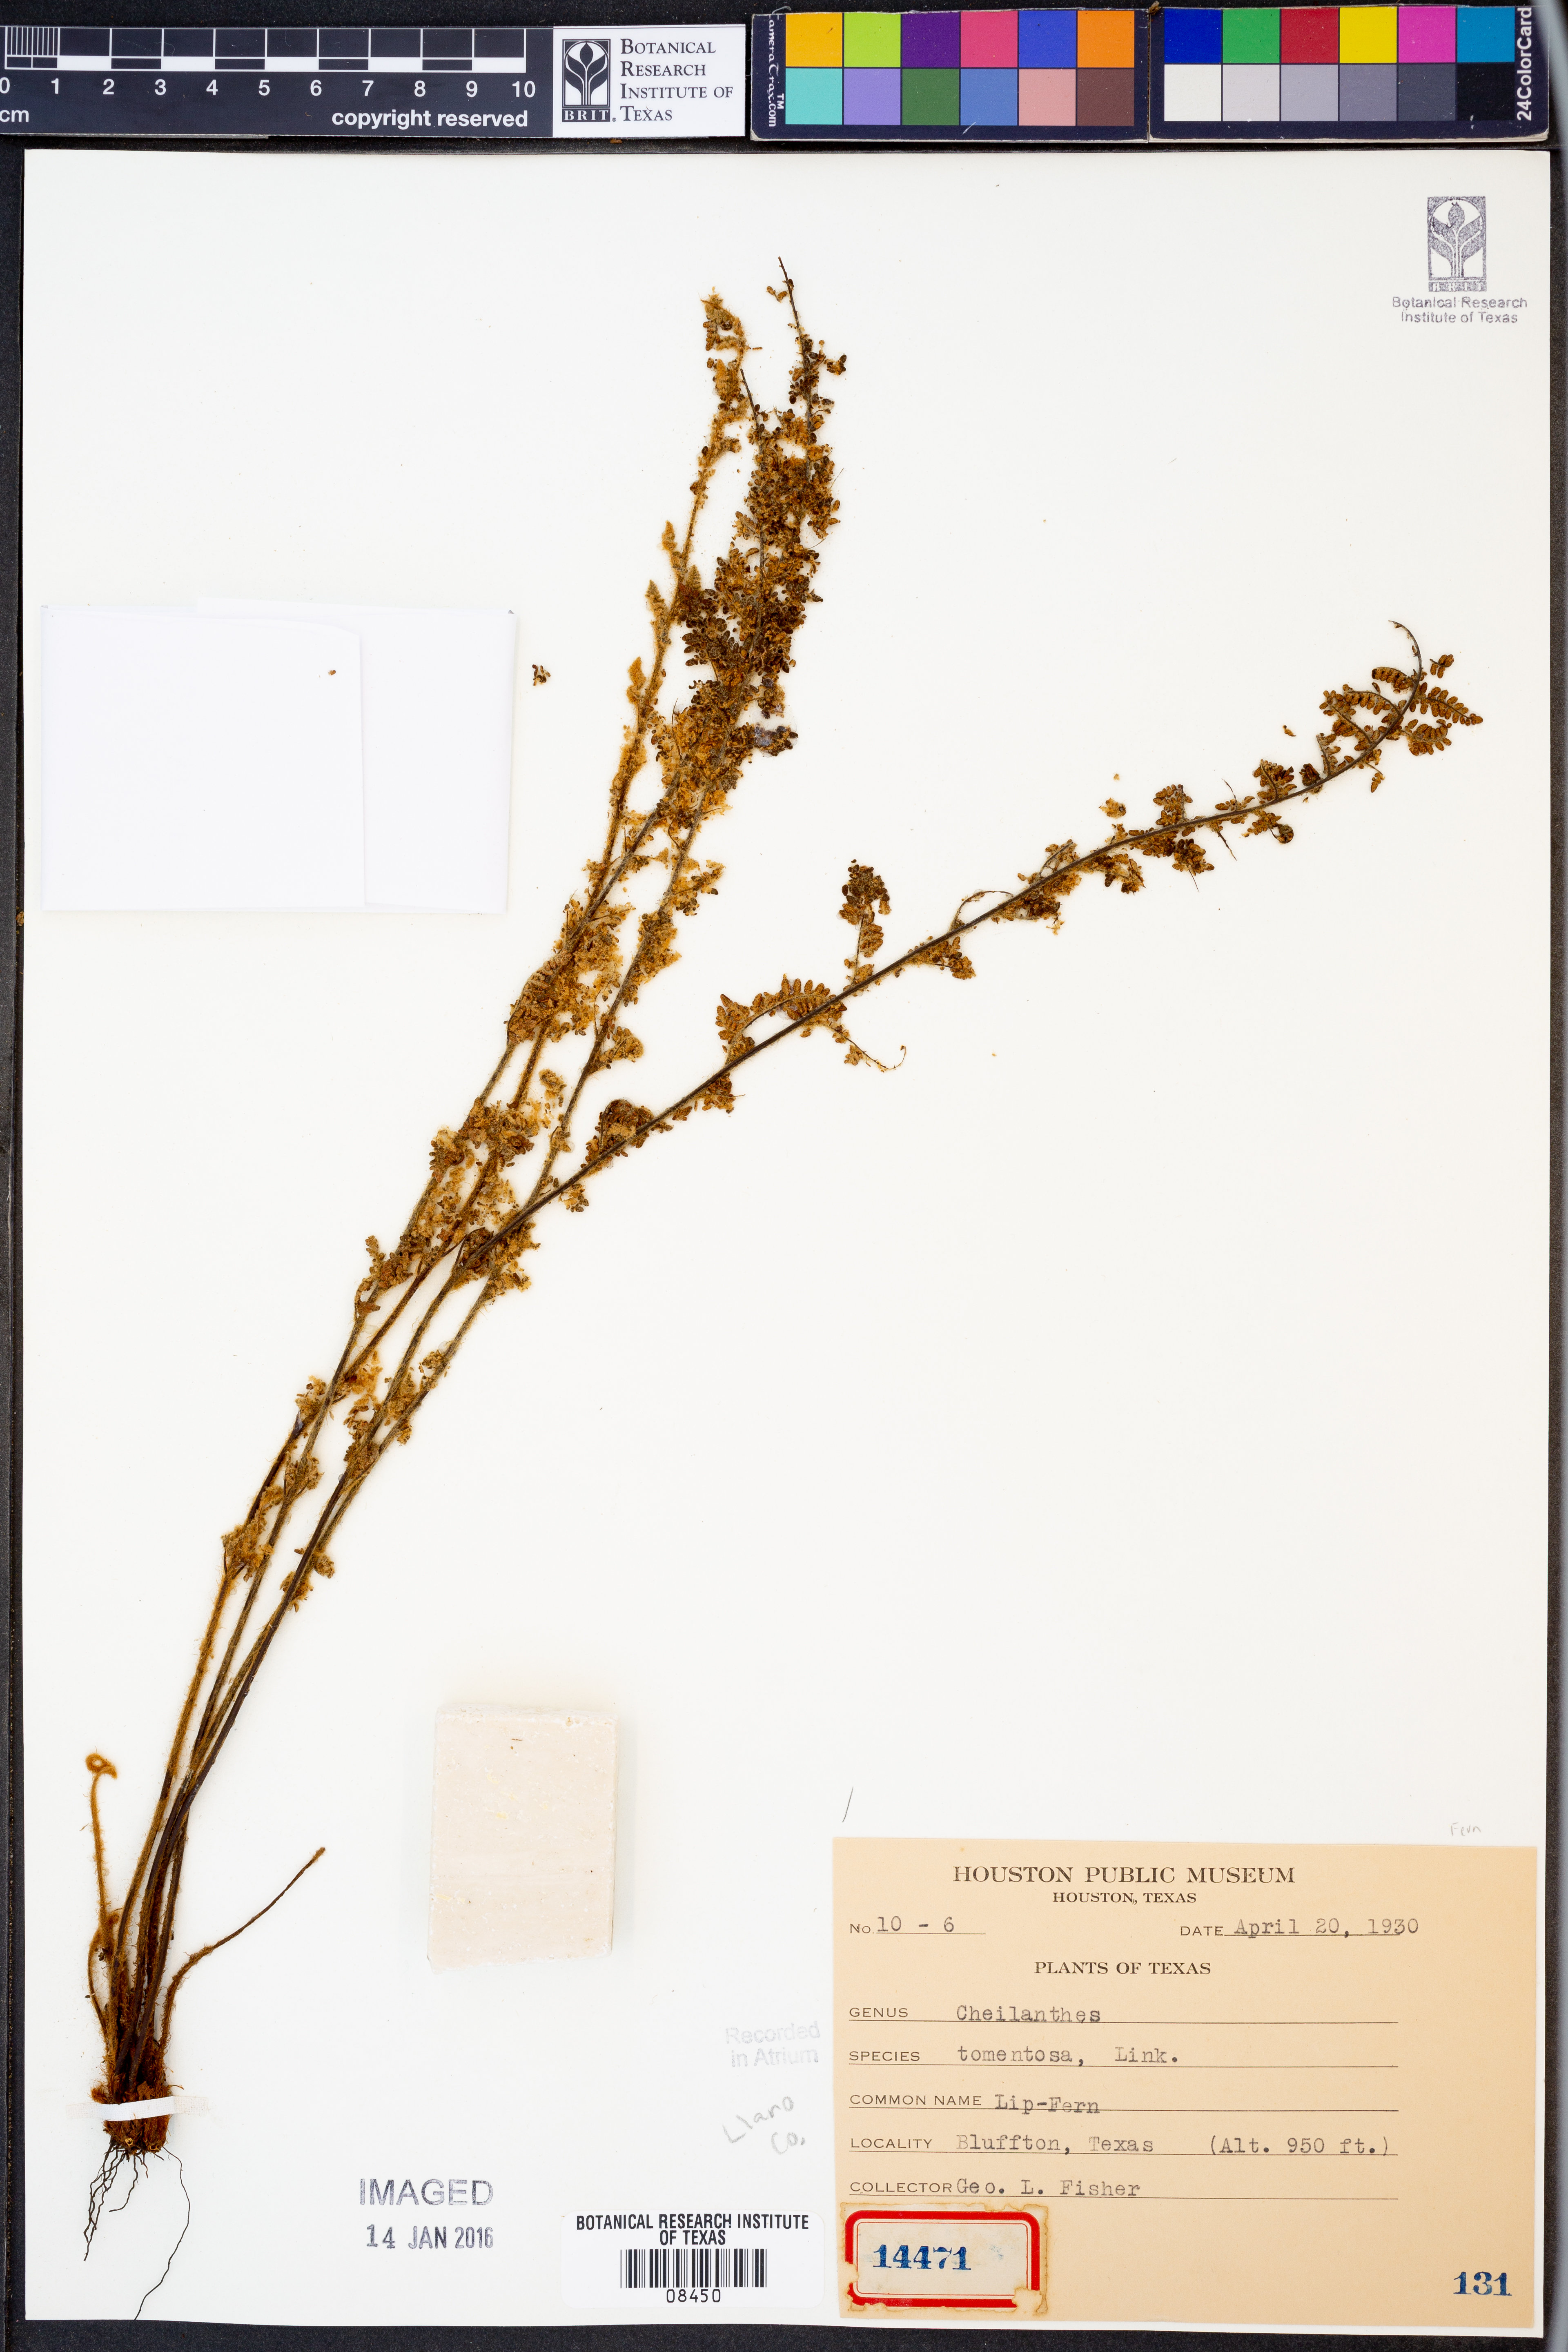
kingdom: Plantae
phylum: Tracheophyta
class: Polypodiopsida
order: Polypodiales
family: Pteridaceae
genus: Myriopteris
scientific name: Myriopteris tomentosa
